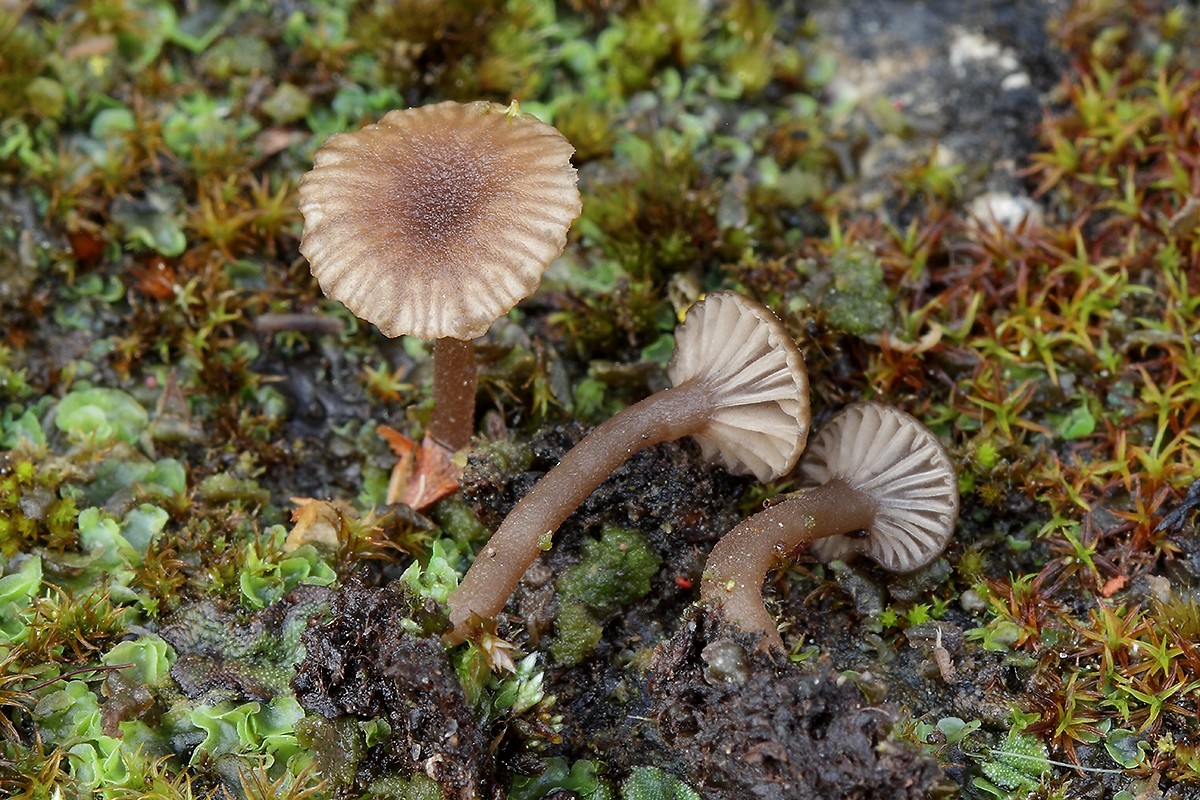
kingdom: Fungi
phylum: Basidiomycota
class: Agaricomycetes
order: Agaricales
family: Hygrophoraceae
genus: Arrhenia
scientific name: Arrhenia rustica
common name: dyster fontænehat
